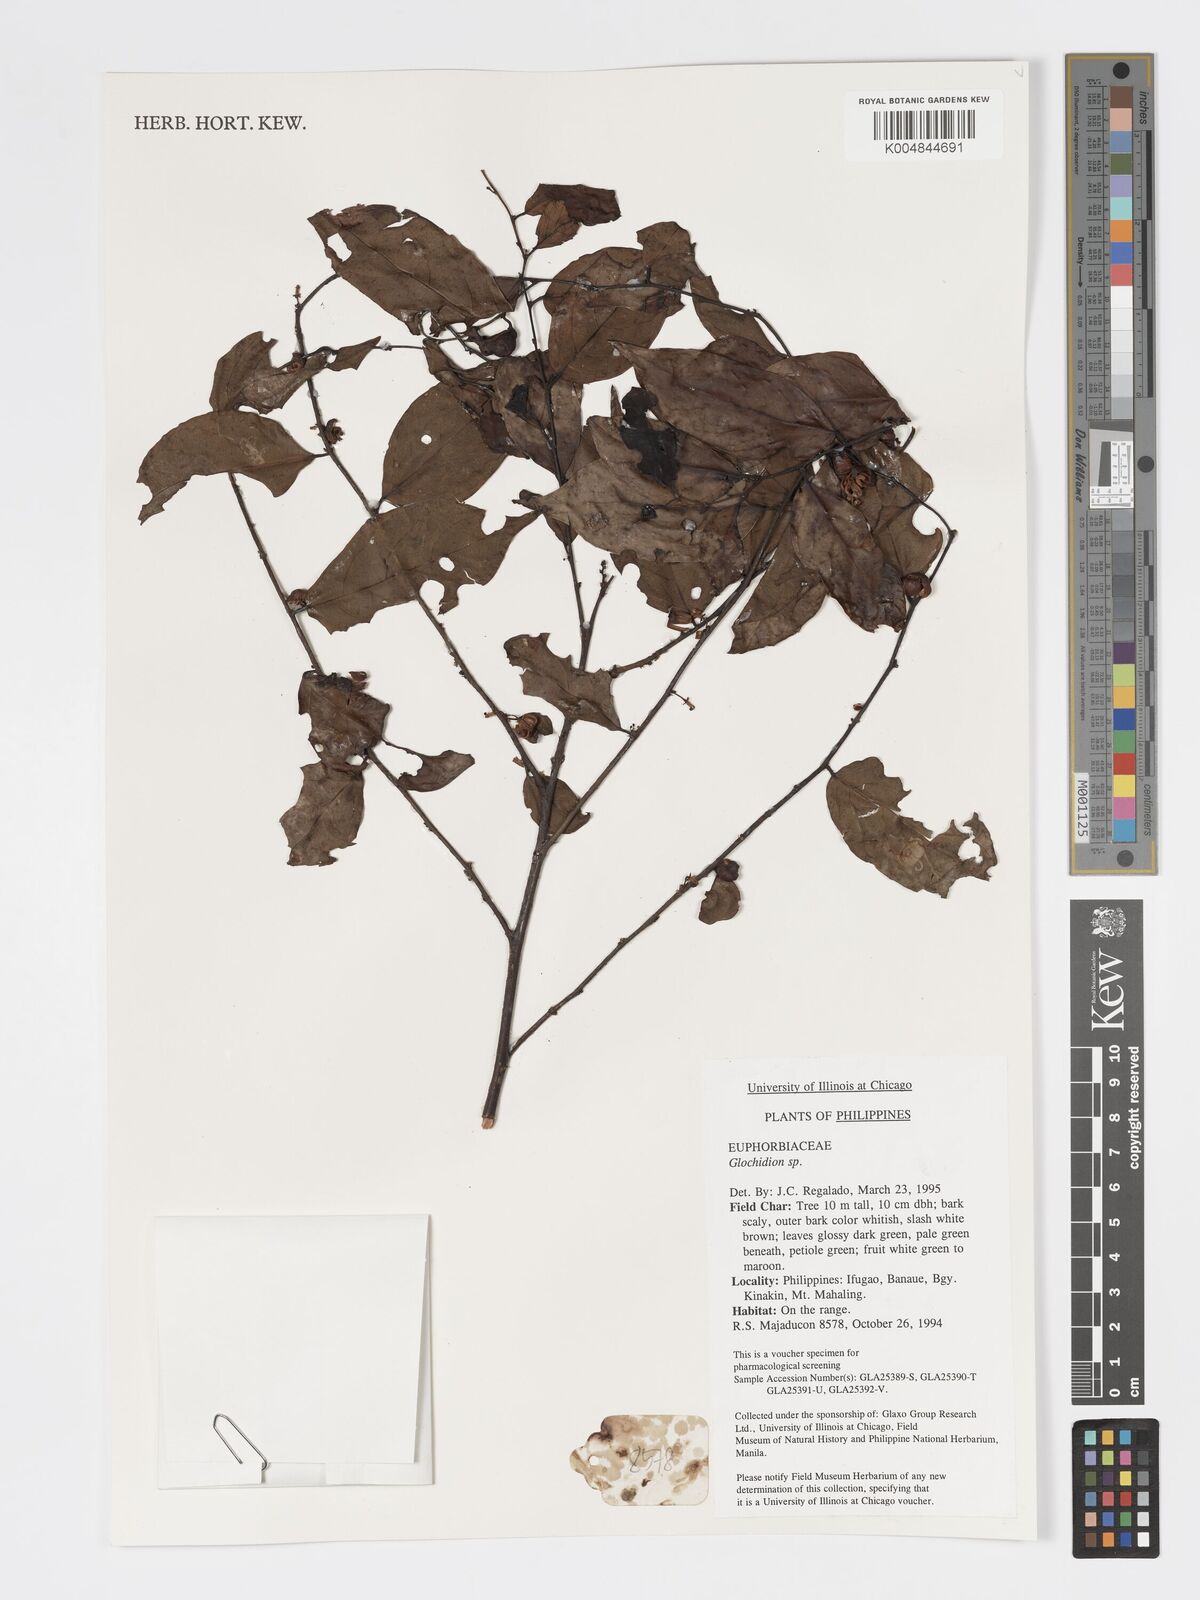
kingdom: Plantae
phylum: Tracheophyta
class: Magnoliopsida
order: Malpighiales
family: Phyllanthaceae
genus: Glochidion
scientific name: Glochidion
